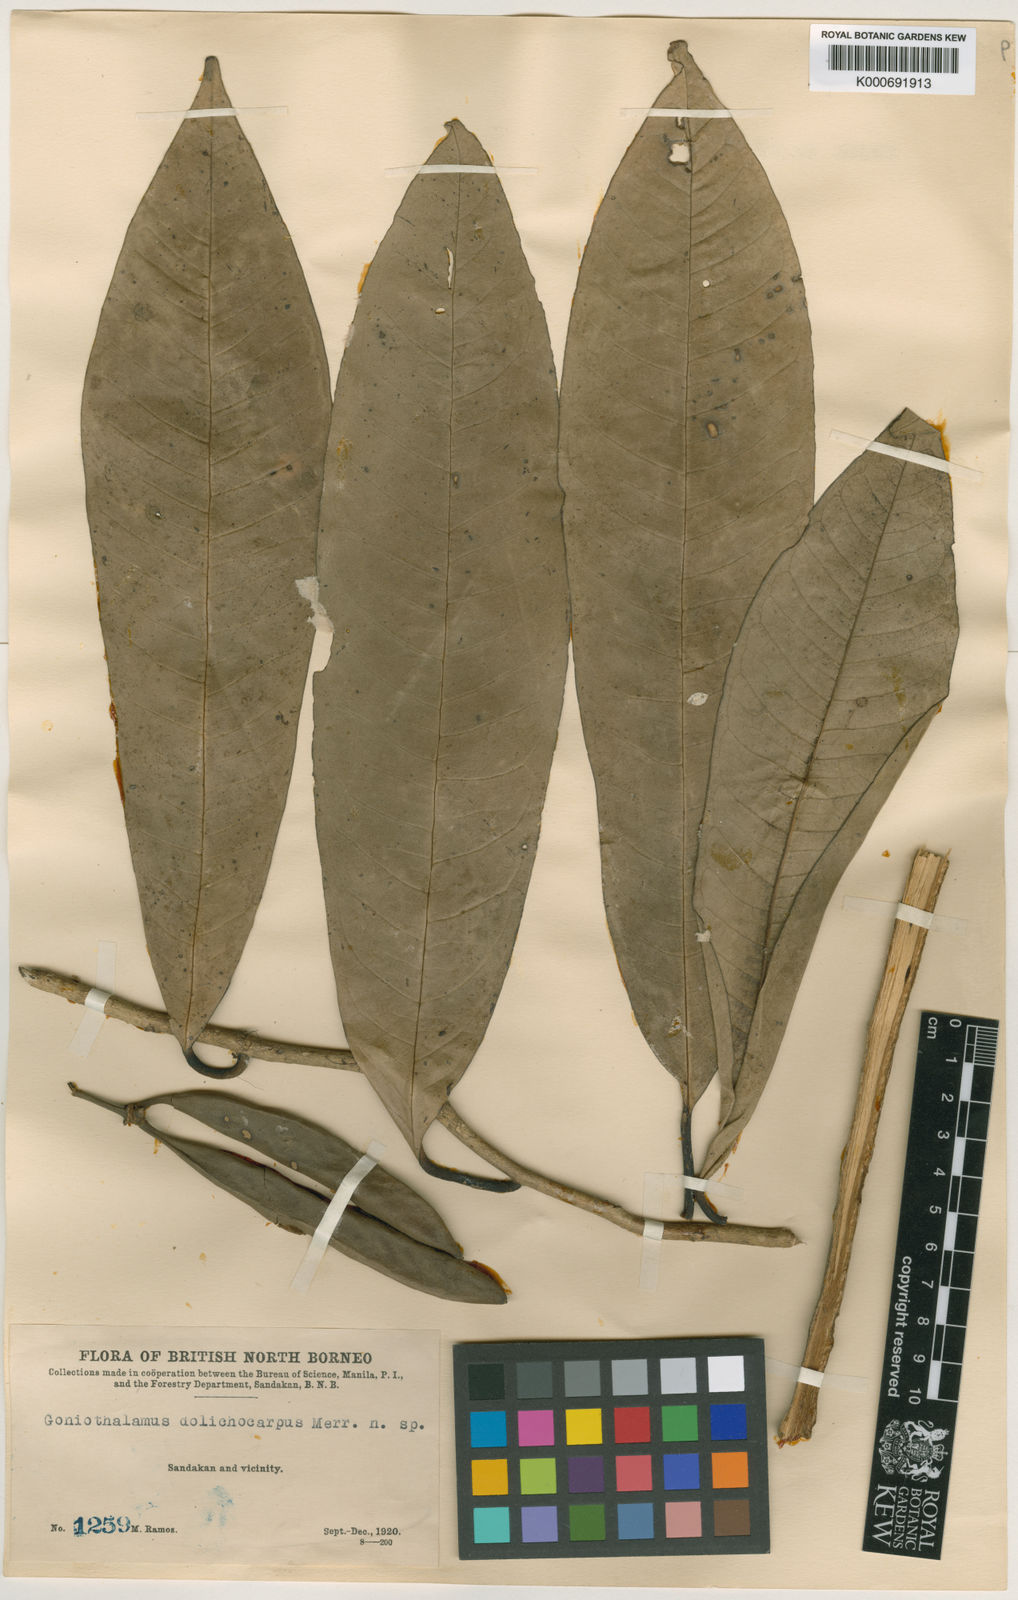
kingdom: Plantae
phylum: Tracheophyta
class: Magnoliopsida
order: Magnoliales
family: Annonaceae
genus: Goniothalamus
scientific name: Goniothalamus dolichocarpus
